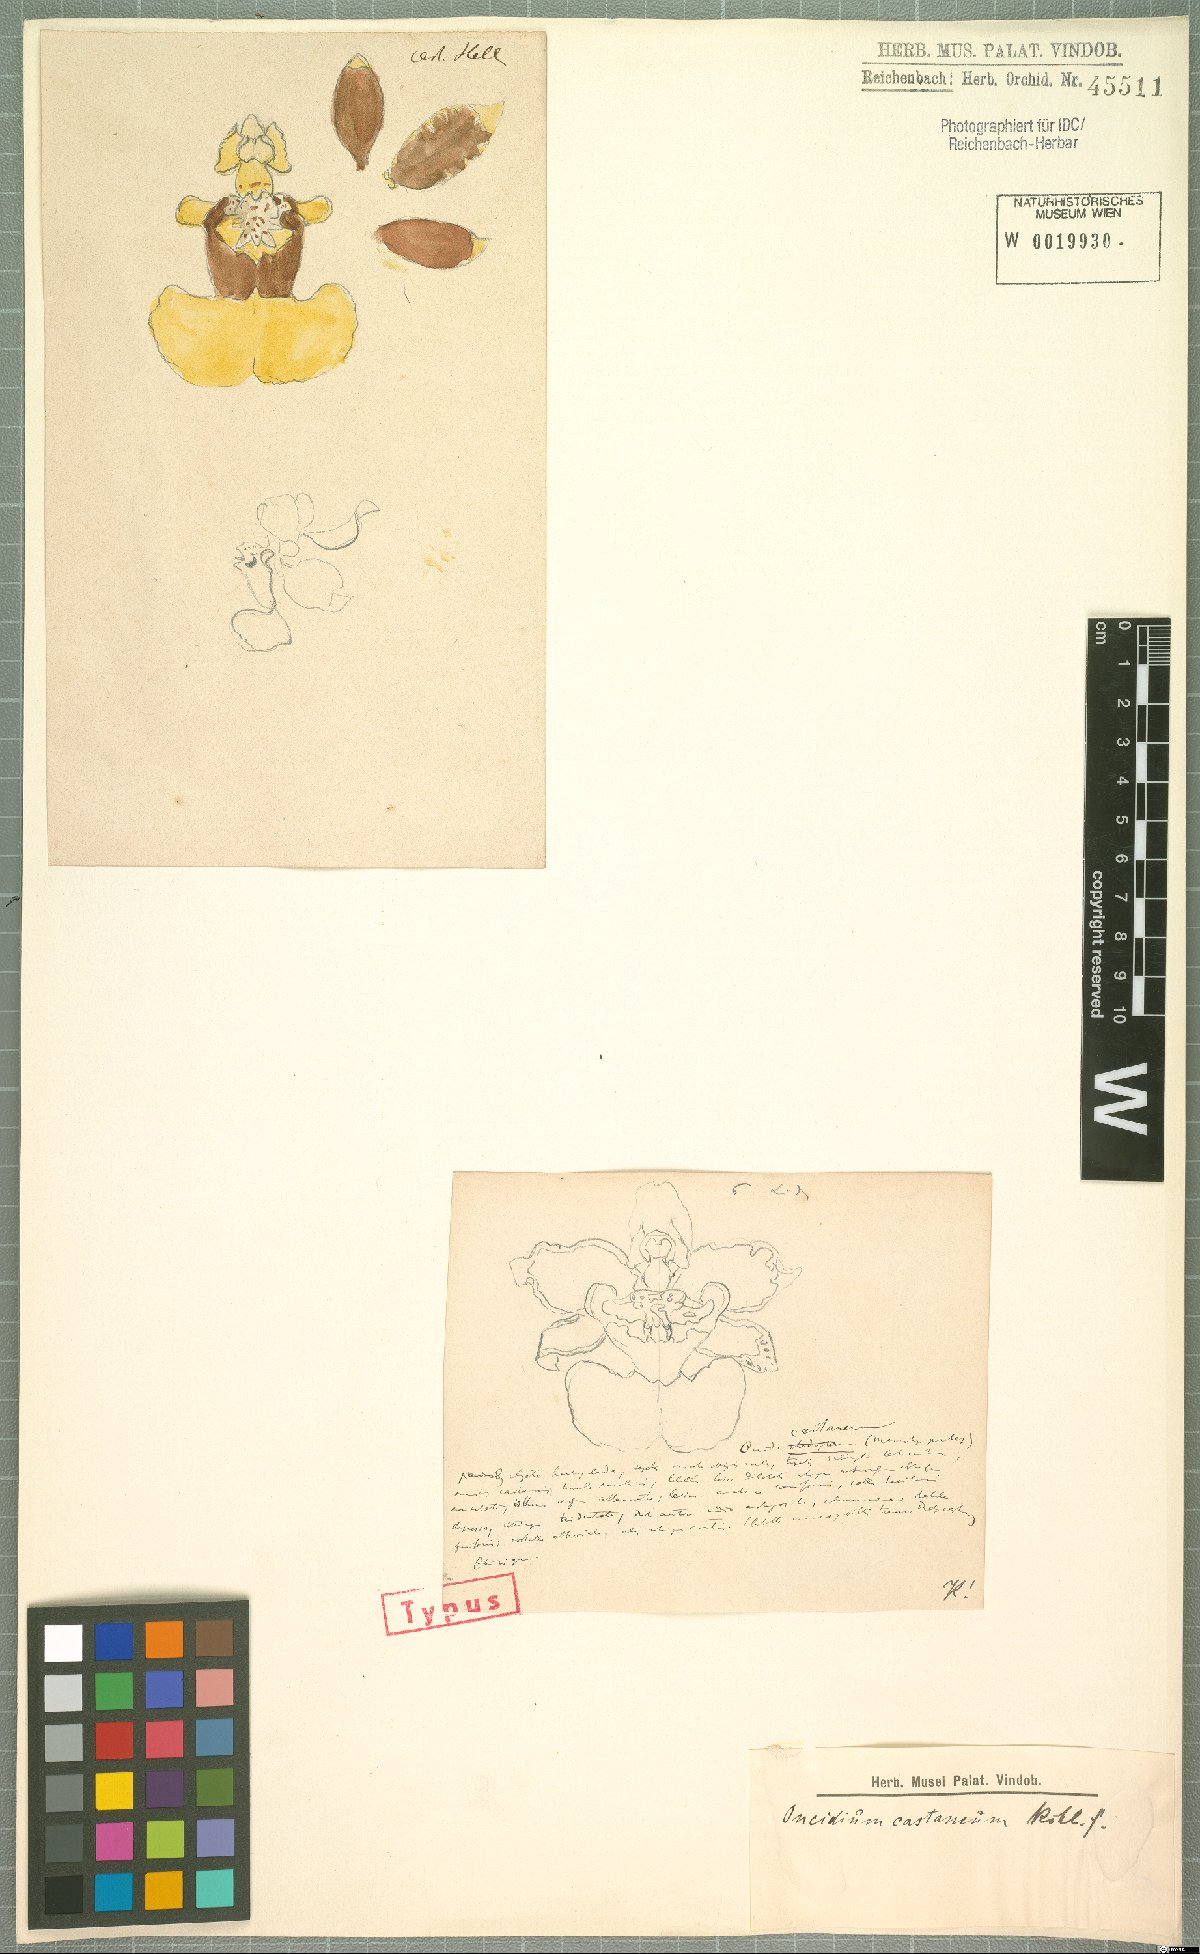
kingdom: Plantae
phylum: Tracheophyta
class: Liliopsida
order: Asparagales
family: Orchidaceae
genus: Oncidium
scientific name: Oncidium dichromaticum
